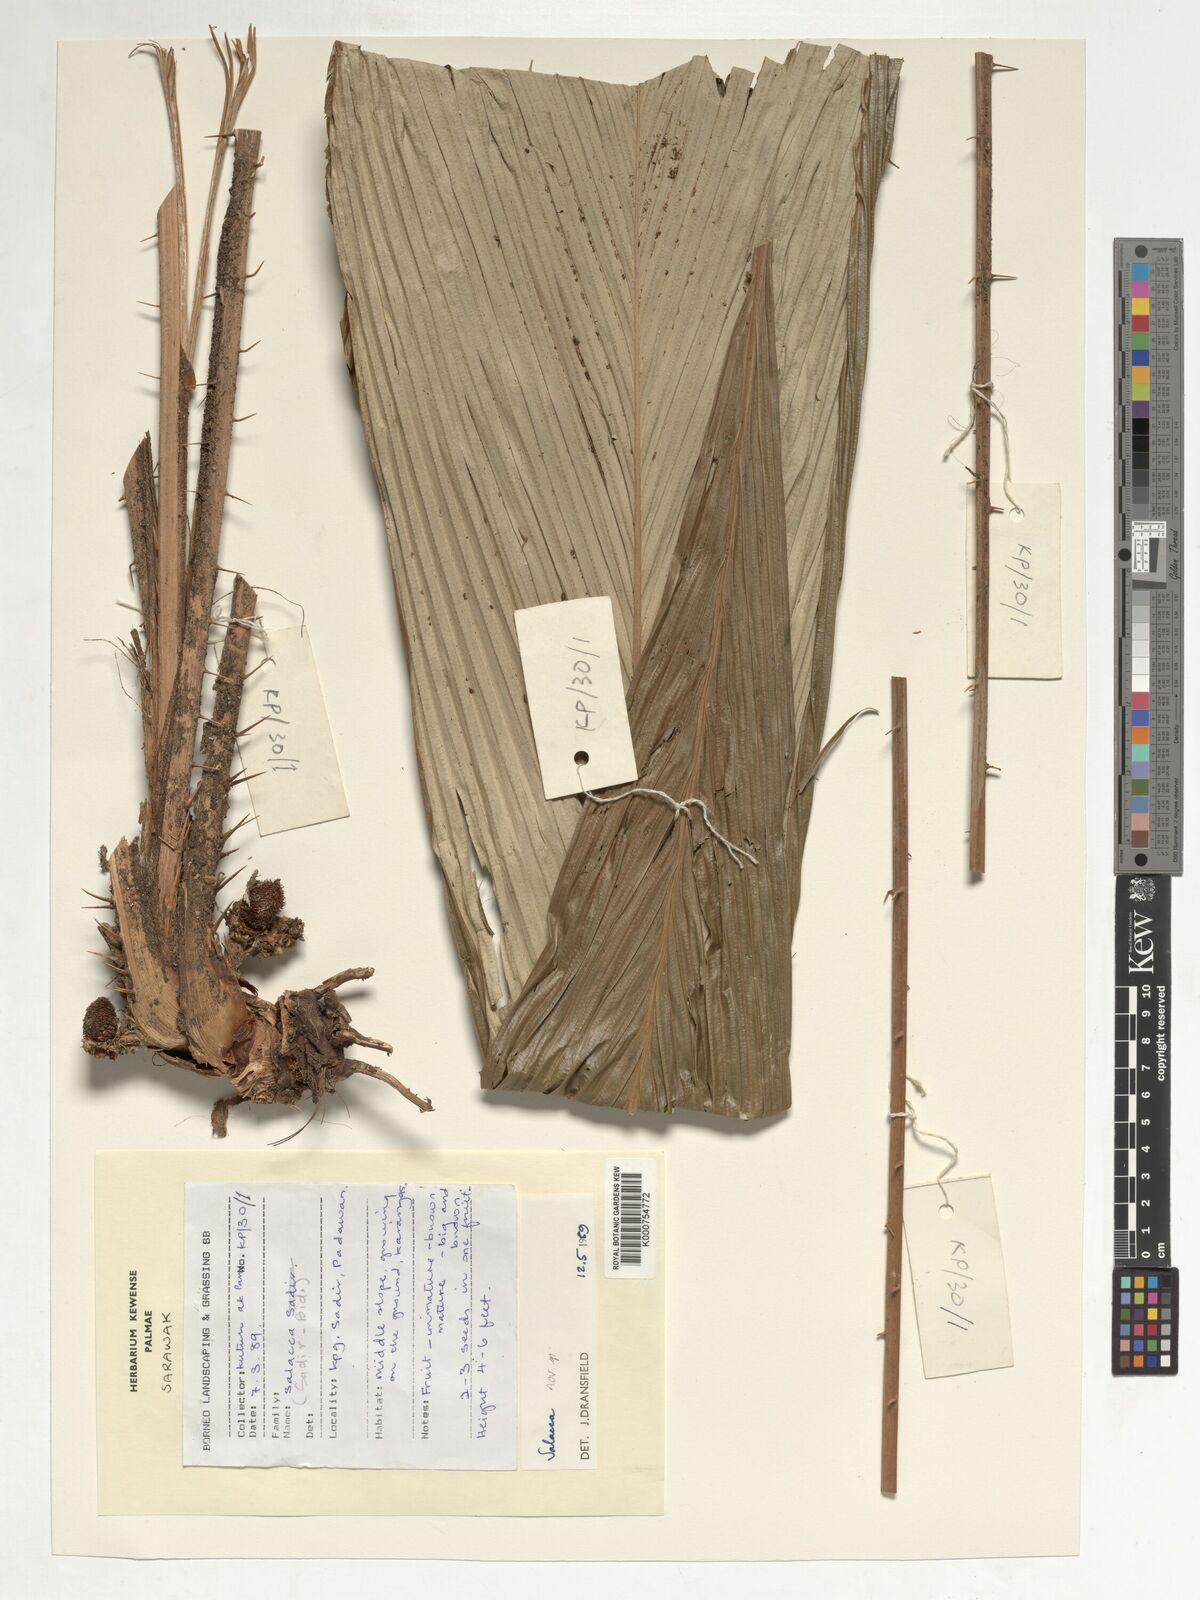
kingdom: Plantae
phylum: Tracheophyta
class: Liliopsida
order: Arecales
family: Arecaceae
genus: Salacca
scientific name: Salacca
